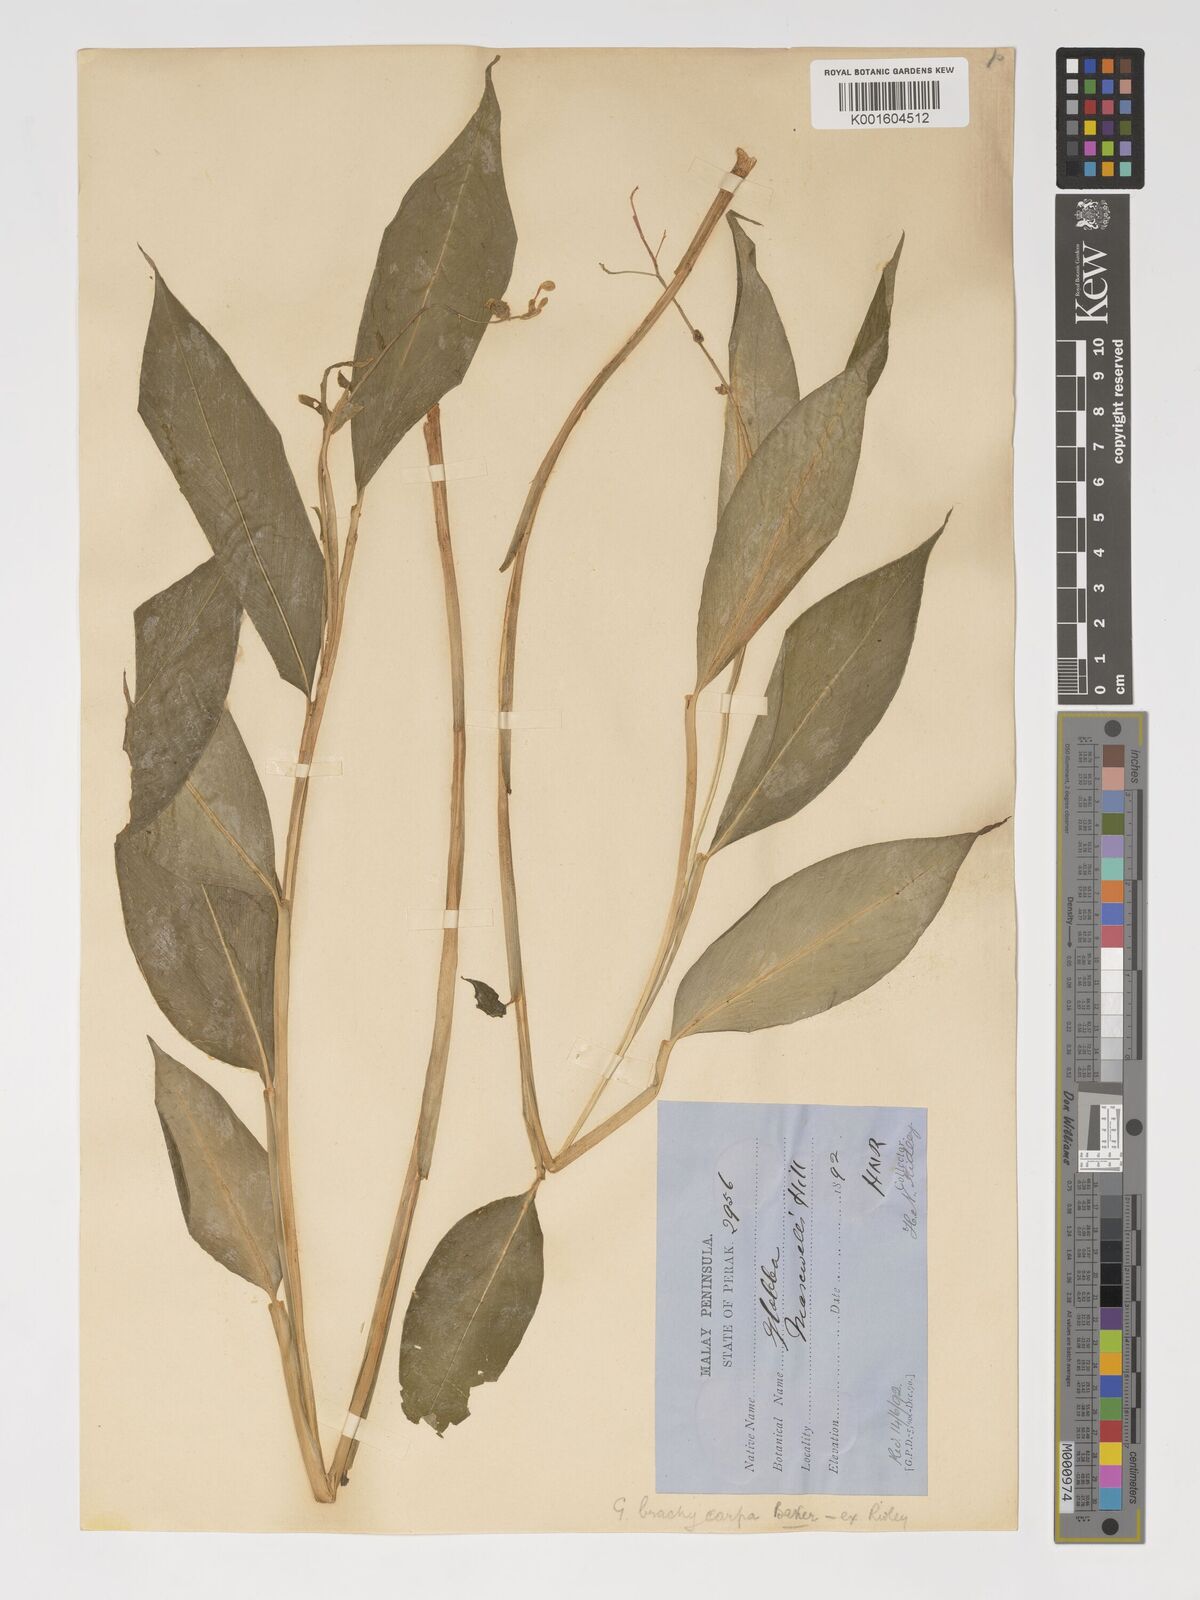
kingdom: Plantae
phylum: Tracheophyta
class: Liliopsida
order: Zingiberales
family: Zingiberaceae
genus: Globba
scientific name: Globba cernua
